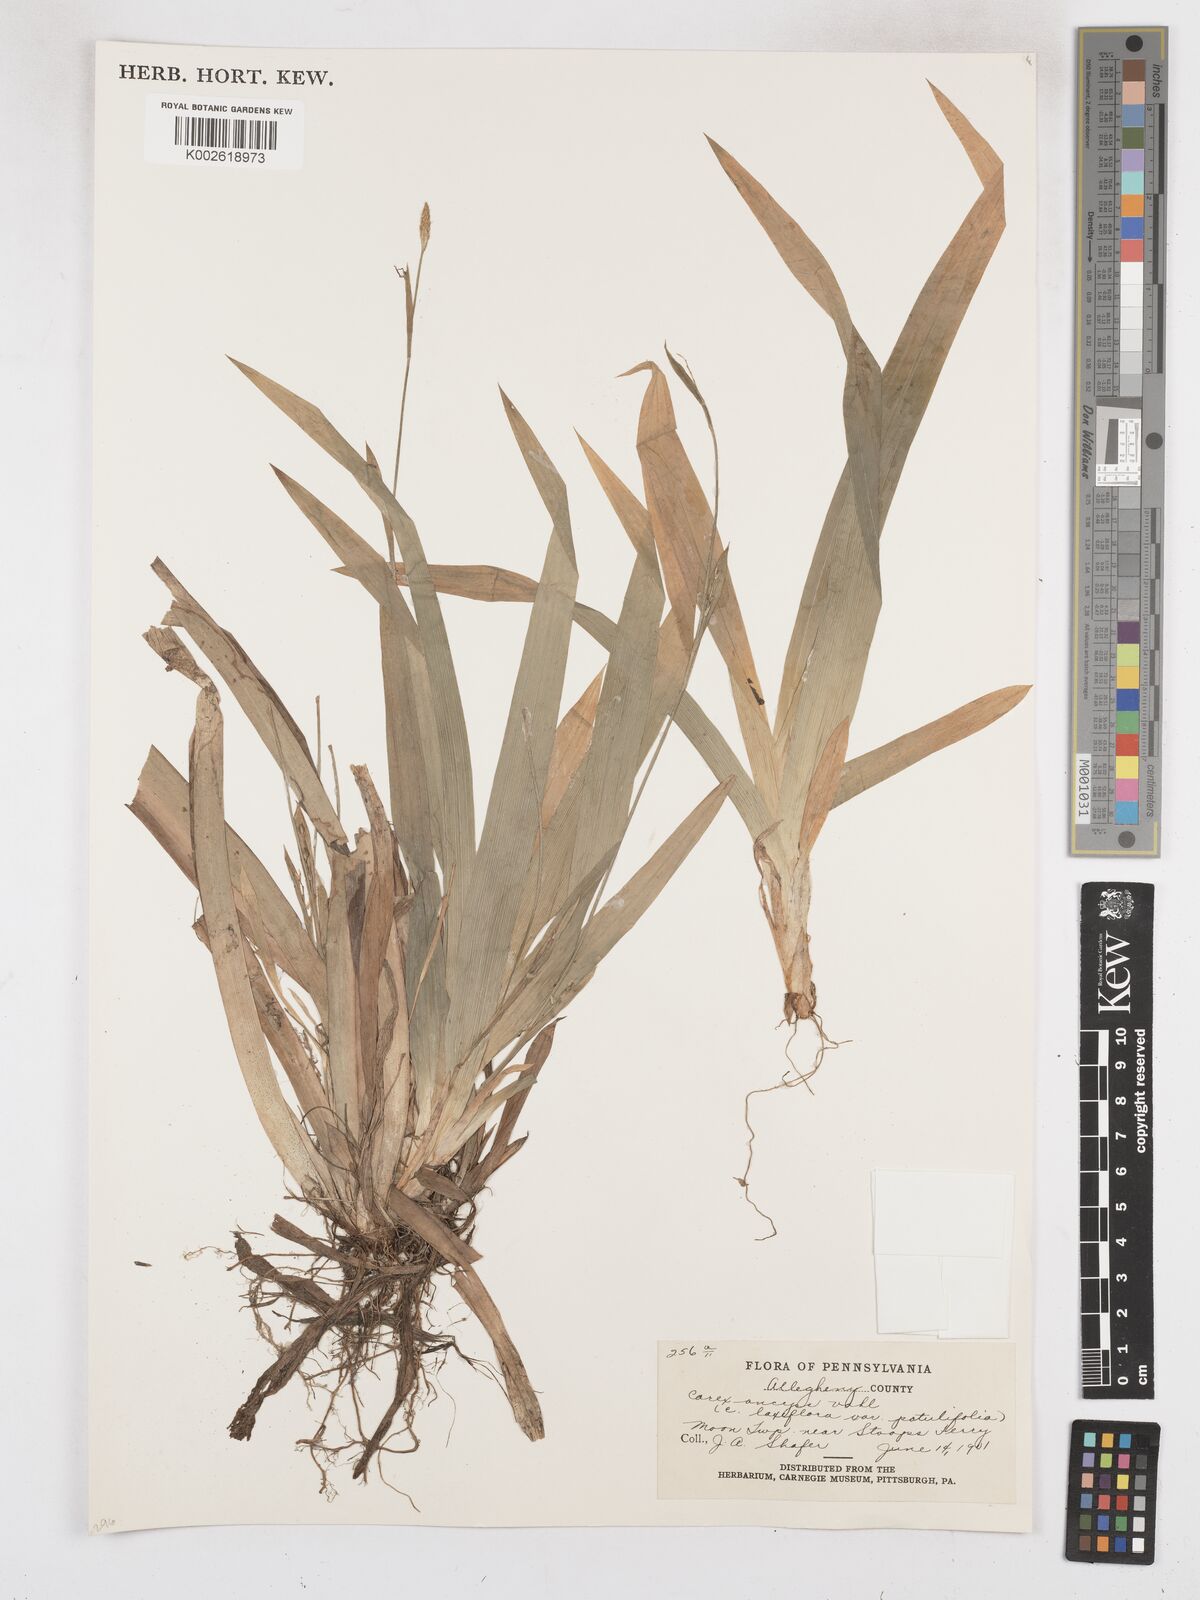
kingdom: Plantae
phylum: Tracheophyta
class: Liliopsida
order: Poales
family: Cyperaceae
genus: Carex
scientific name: Carex laxiflora
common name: Beech wood sedge
